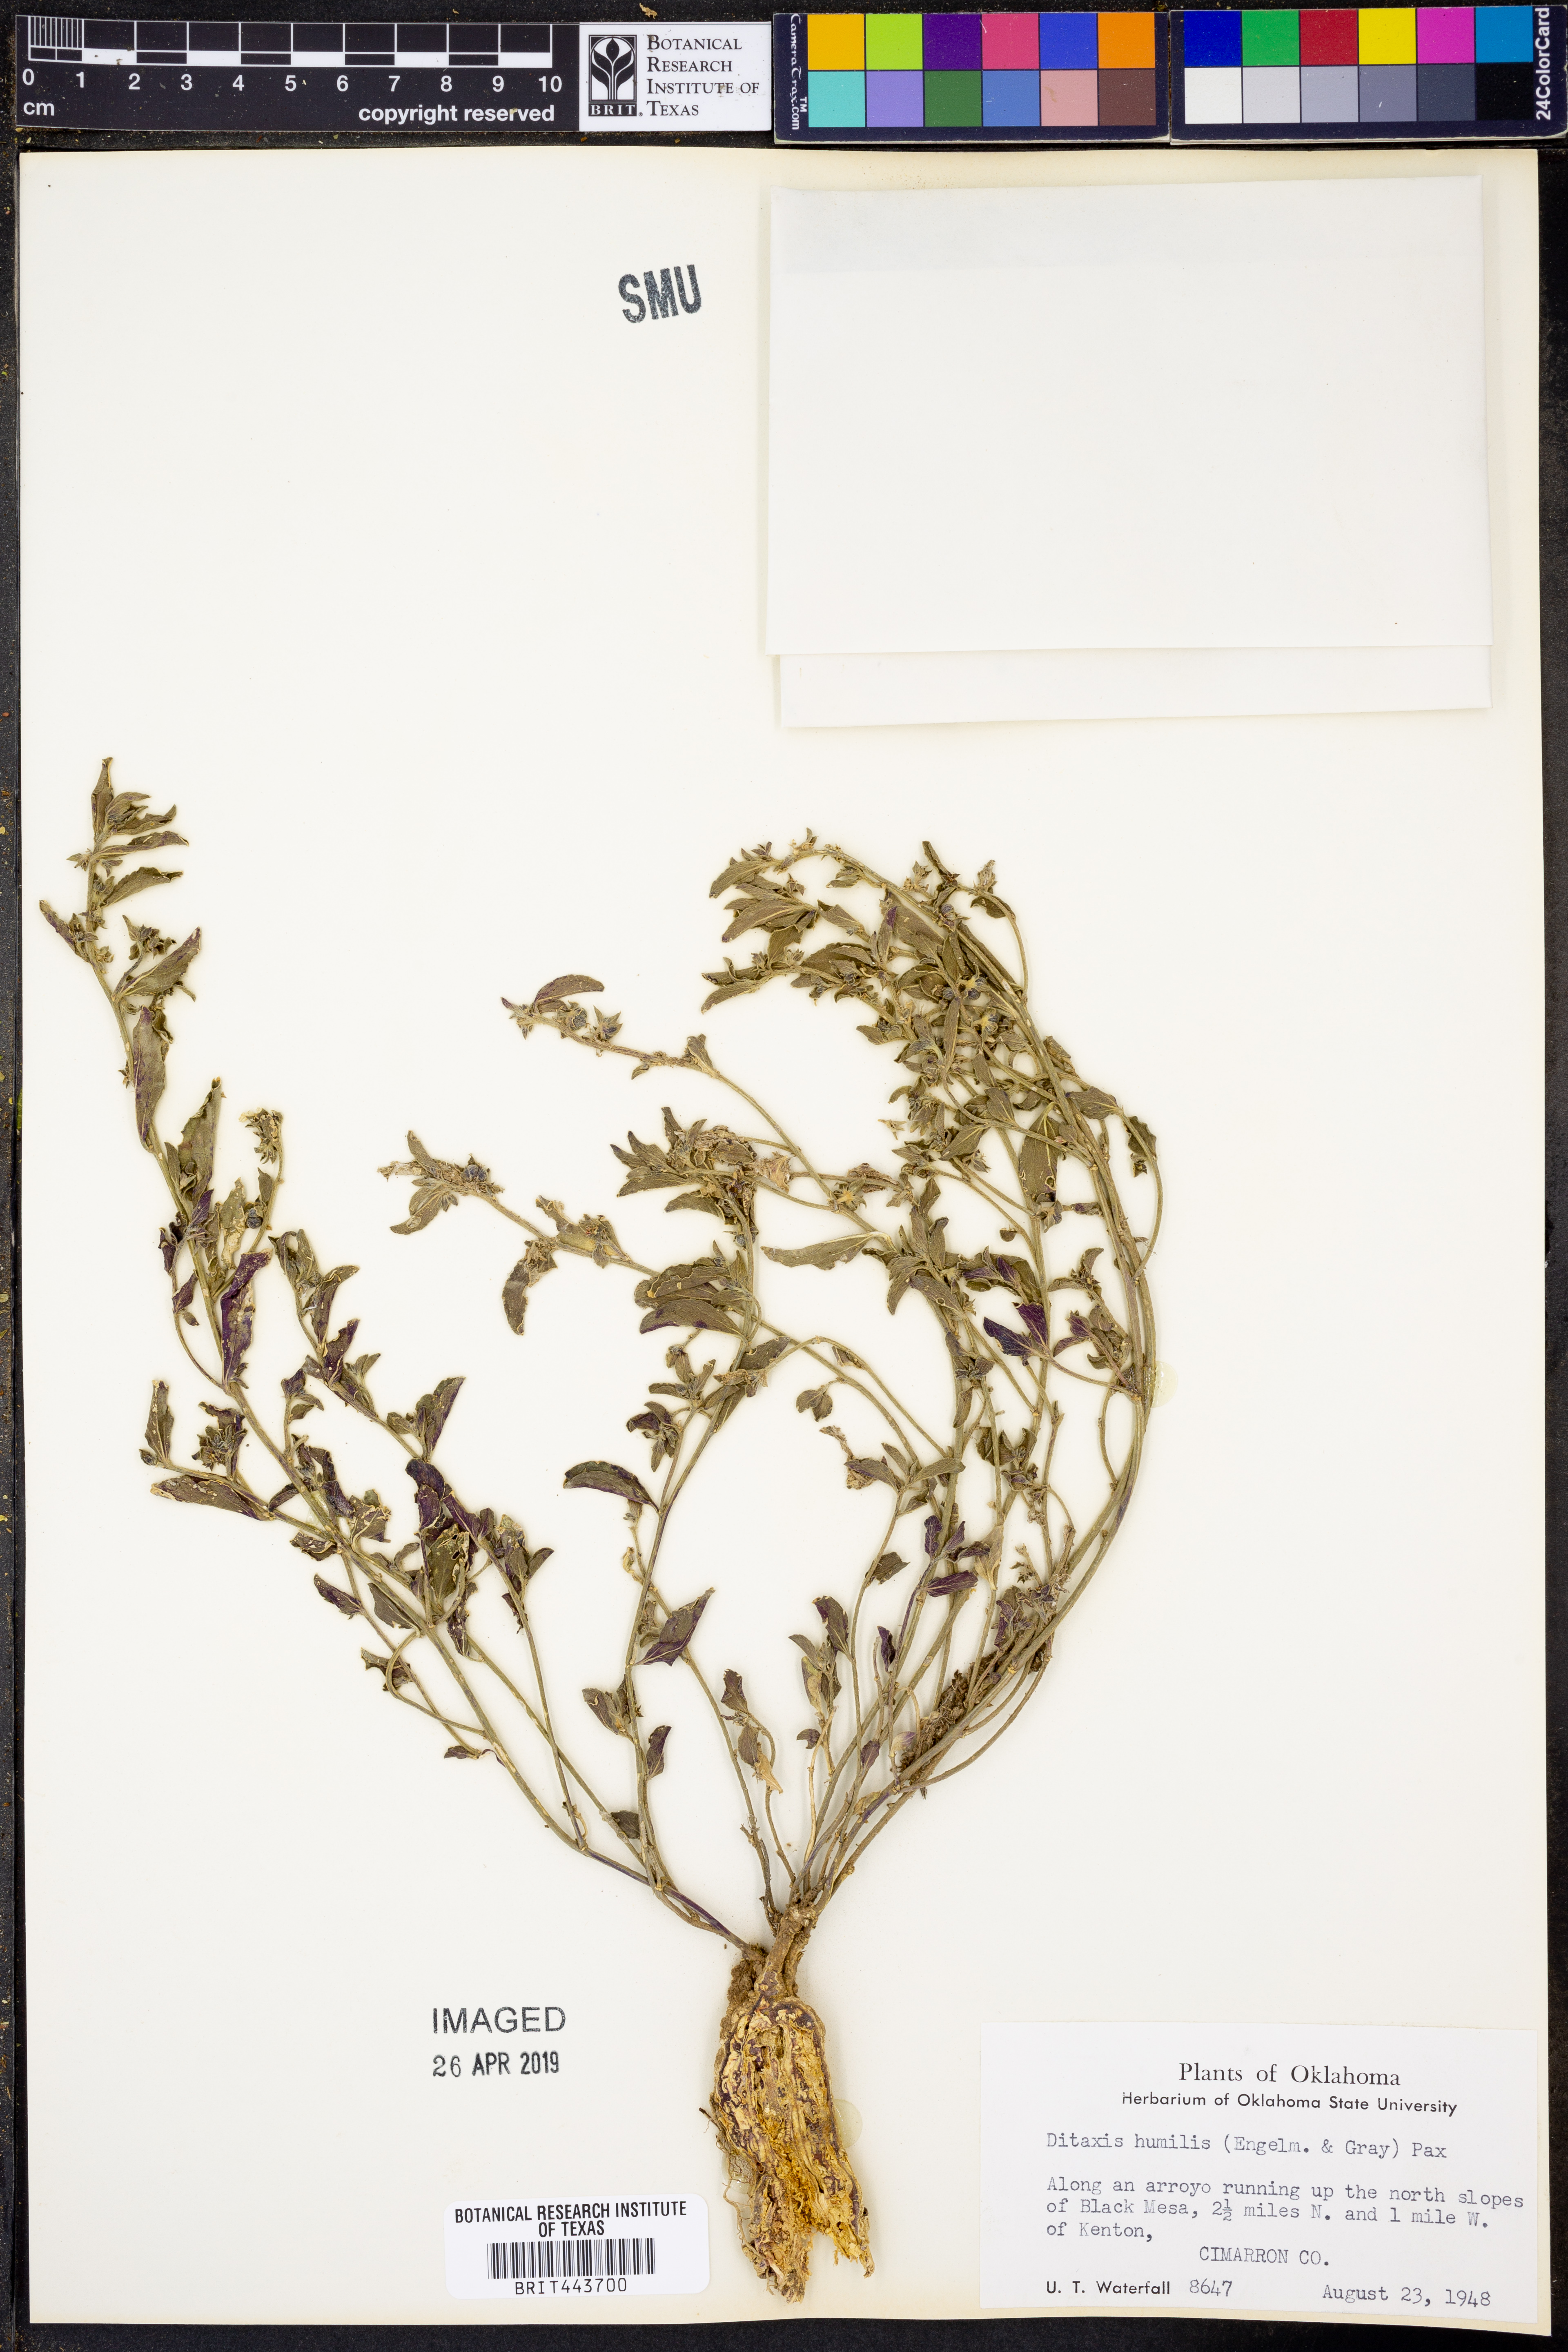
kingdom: Plantae
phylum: Tracheophyta
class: Magnoliopsida
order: Malpighiales
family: Euphorbiaceae
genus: Ditaxis
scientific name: Ditaxis humilis
